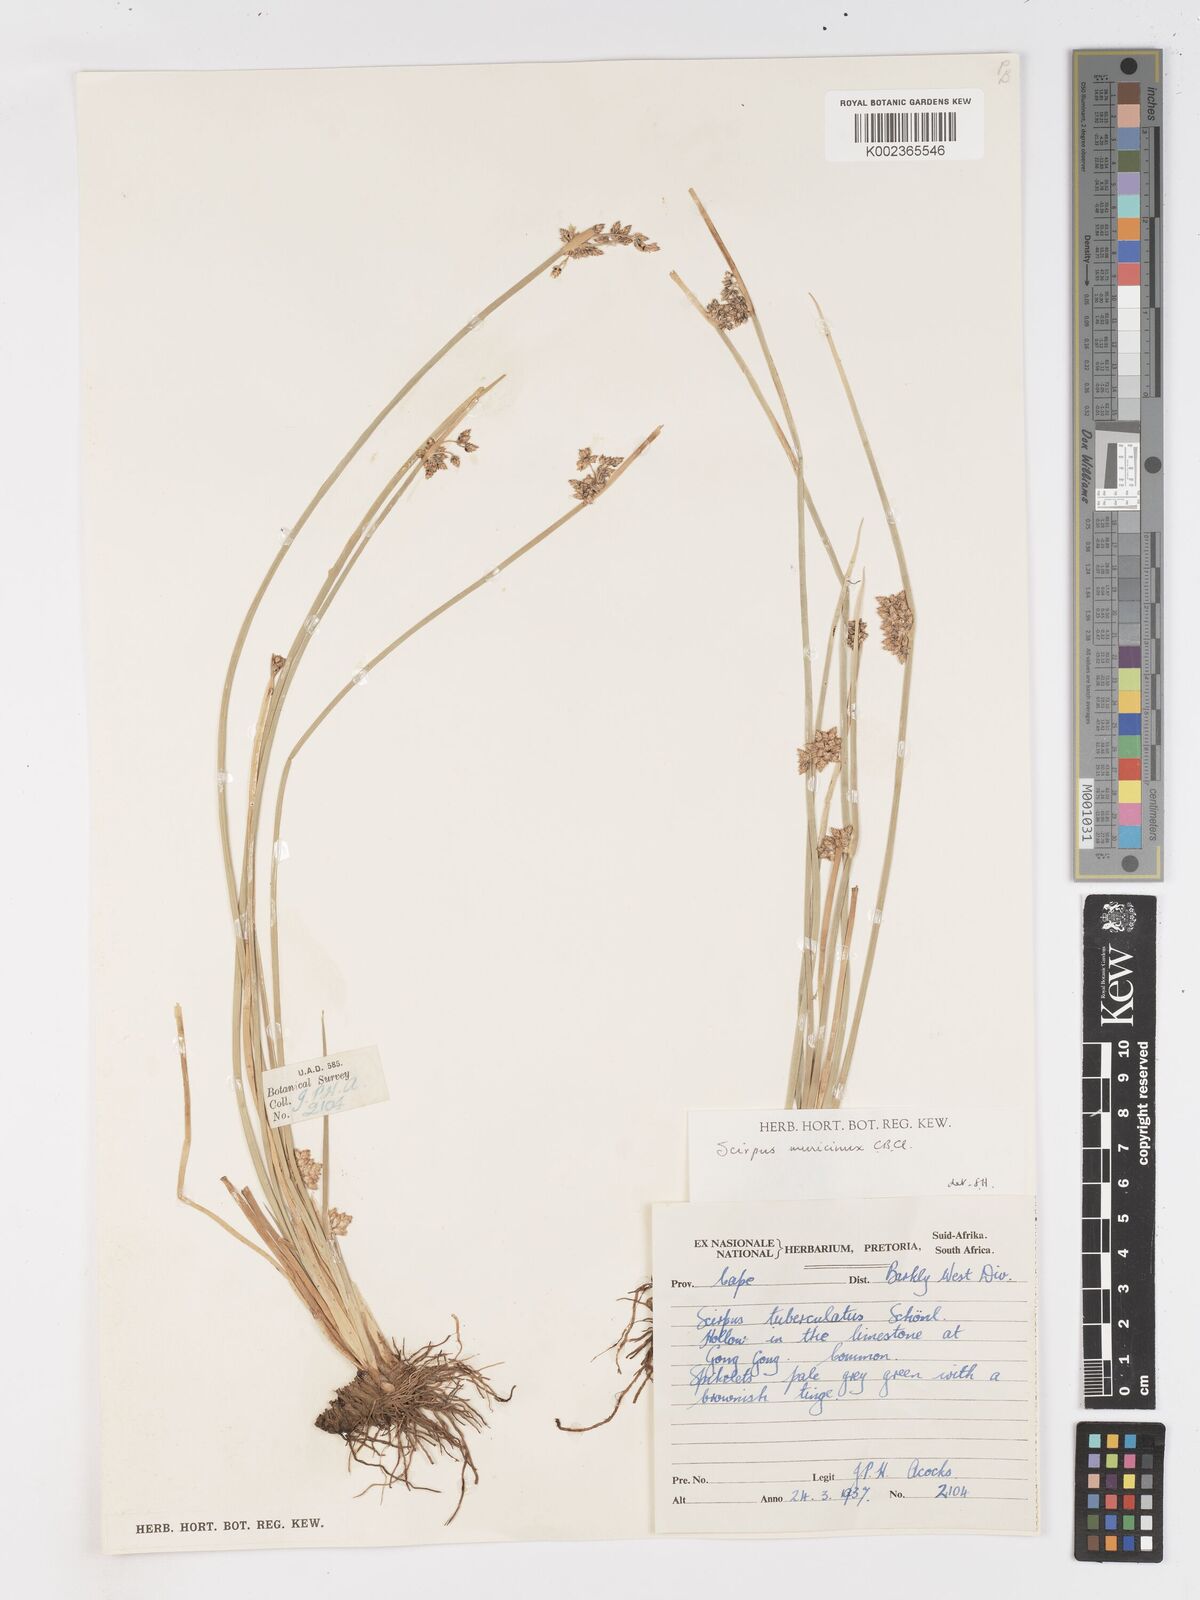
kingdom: Plantae
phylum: Tracheophyta
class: Liliopsida
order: Poales
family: Cyperaceae
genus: Schoenoplectiella
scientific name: Schoenoplectiella muricinux
